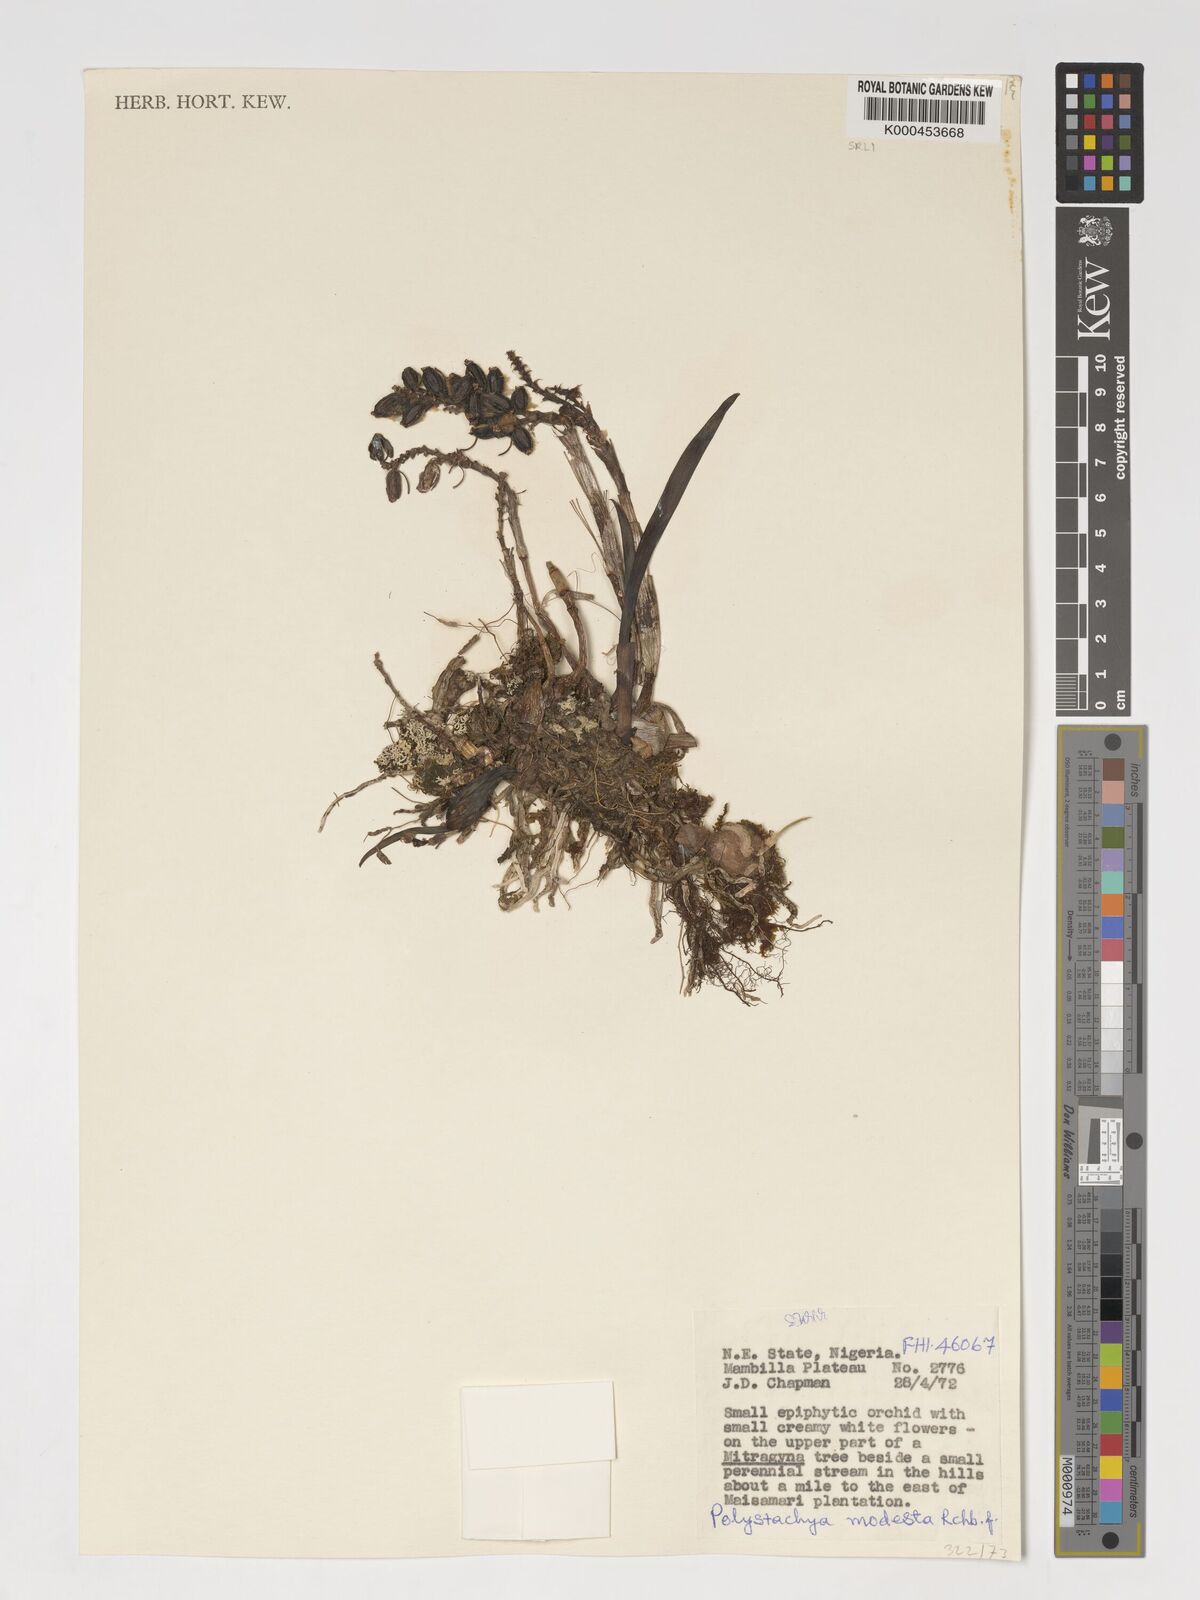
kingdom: Plantae
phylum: Tracheophyta
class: Liliopsida
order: Asparagales
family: Orchidaceae
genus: Polystachya
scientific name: Polystachya modesta
